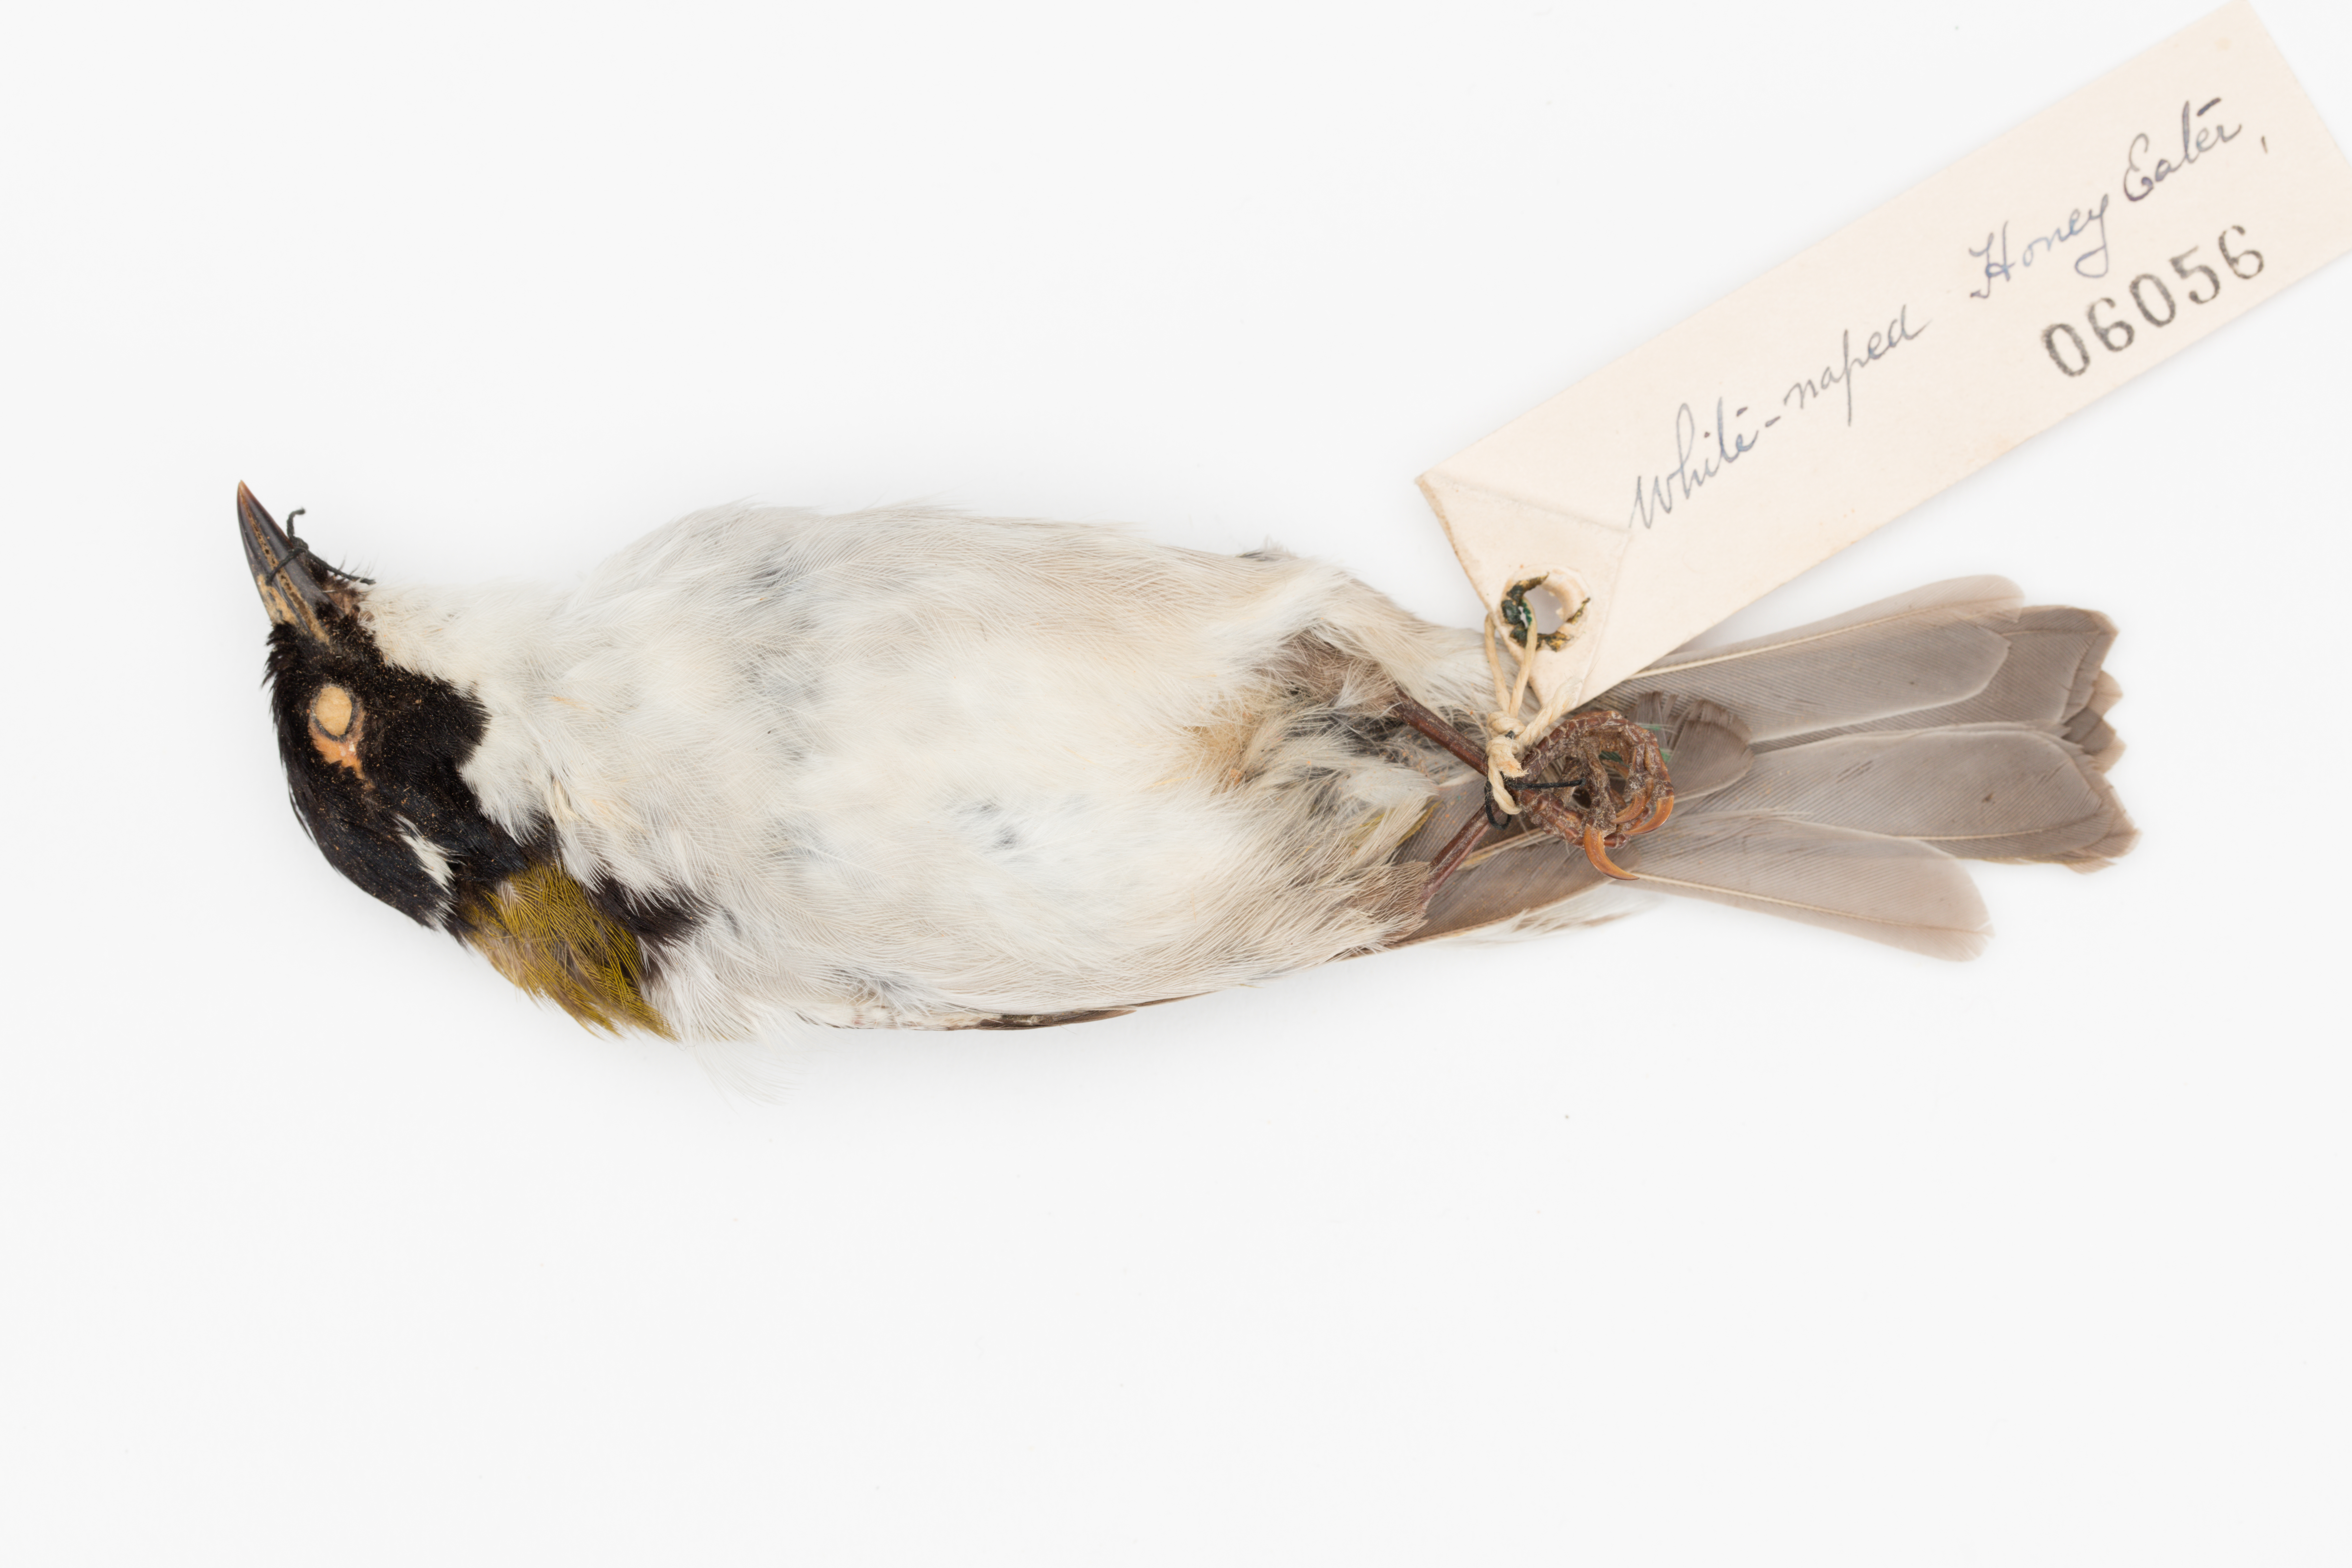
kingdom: Animalia
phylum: Chordata
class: Aves
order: Passeriformes
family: Meliphagidae
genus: Melithreptus
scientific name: Melithreptus lunatus
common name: White-naped honeyeater
